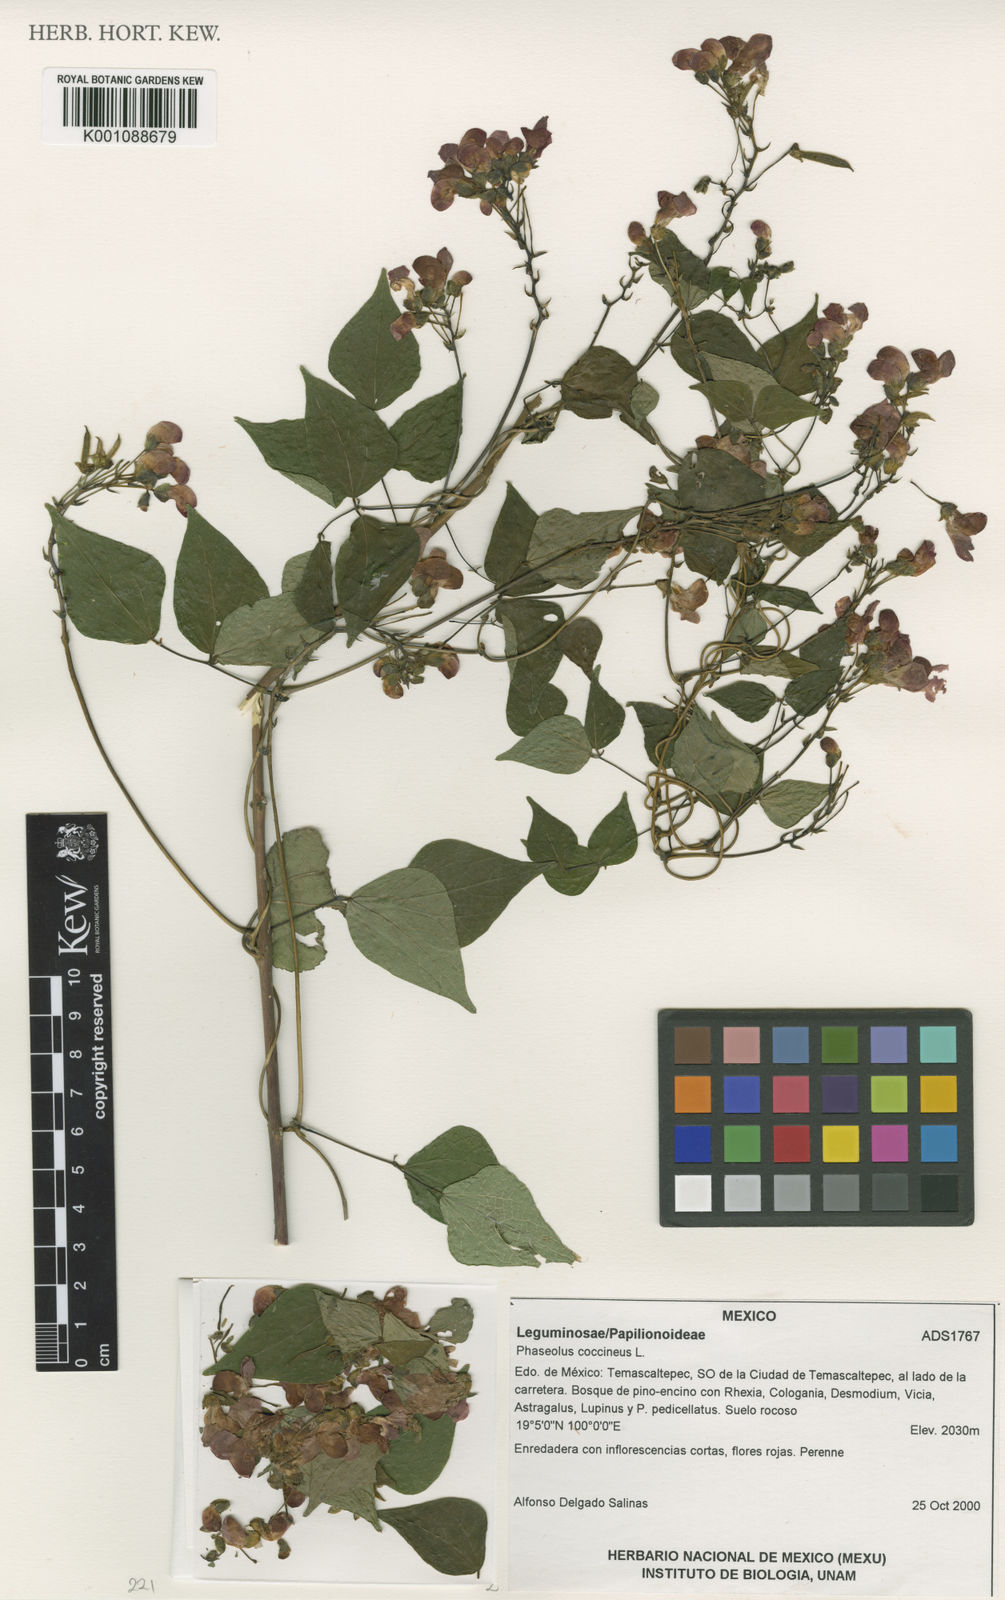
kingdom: Plantae
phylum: Tracheophyta
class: Magnoliopsida
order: Fabales
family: Fabaceae
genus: Phaseolus
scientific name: Phaseolus coccineus
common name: Runner bean
